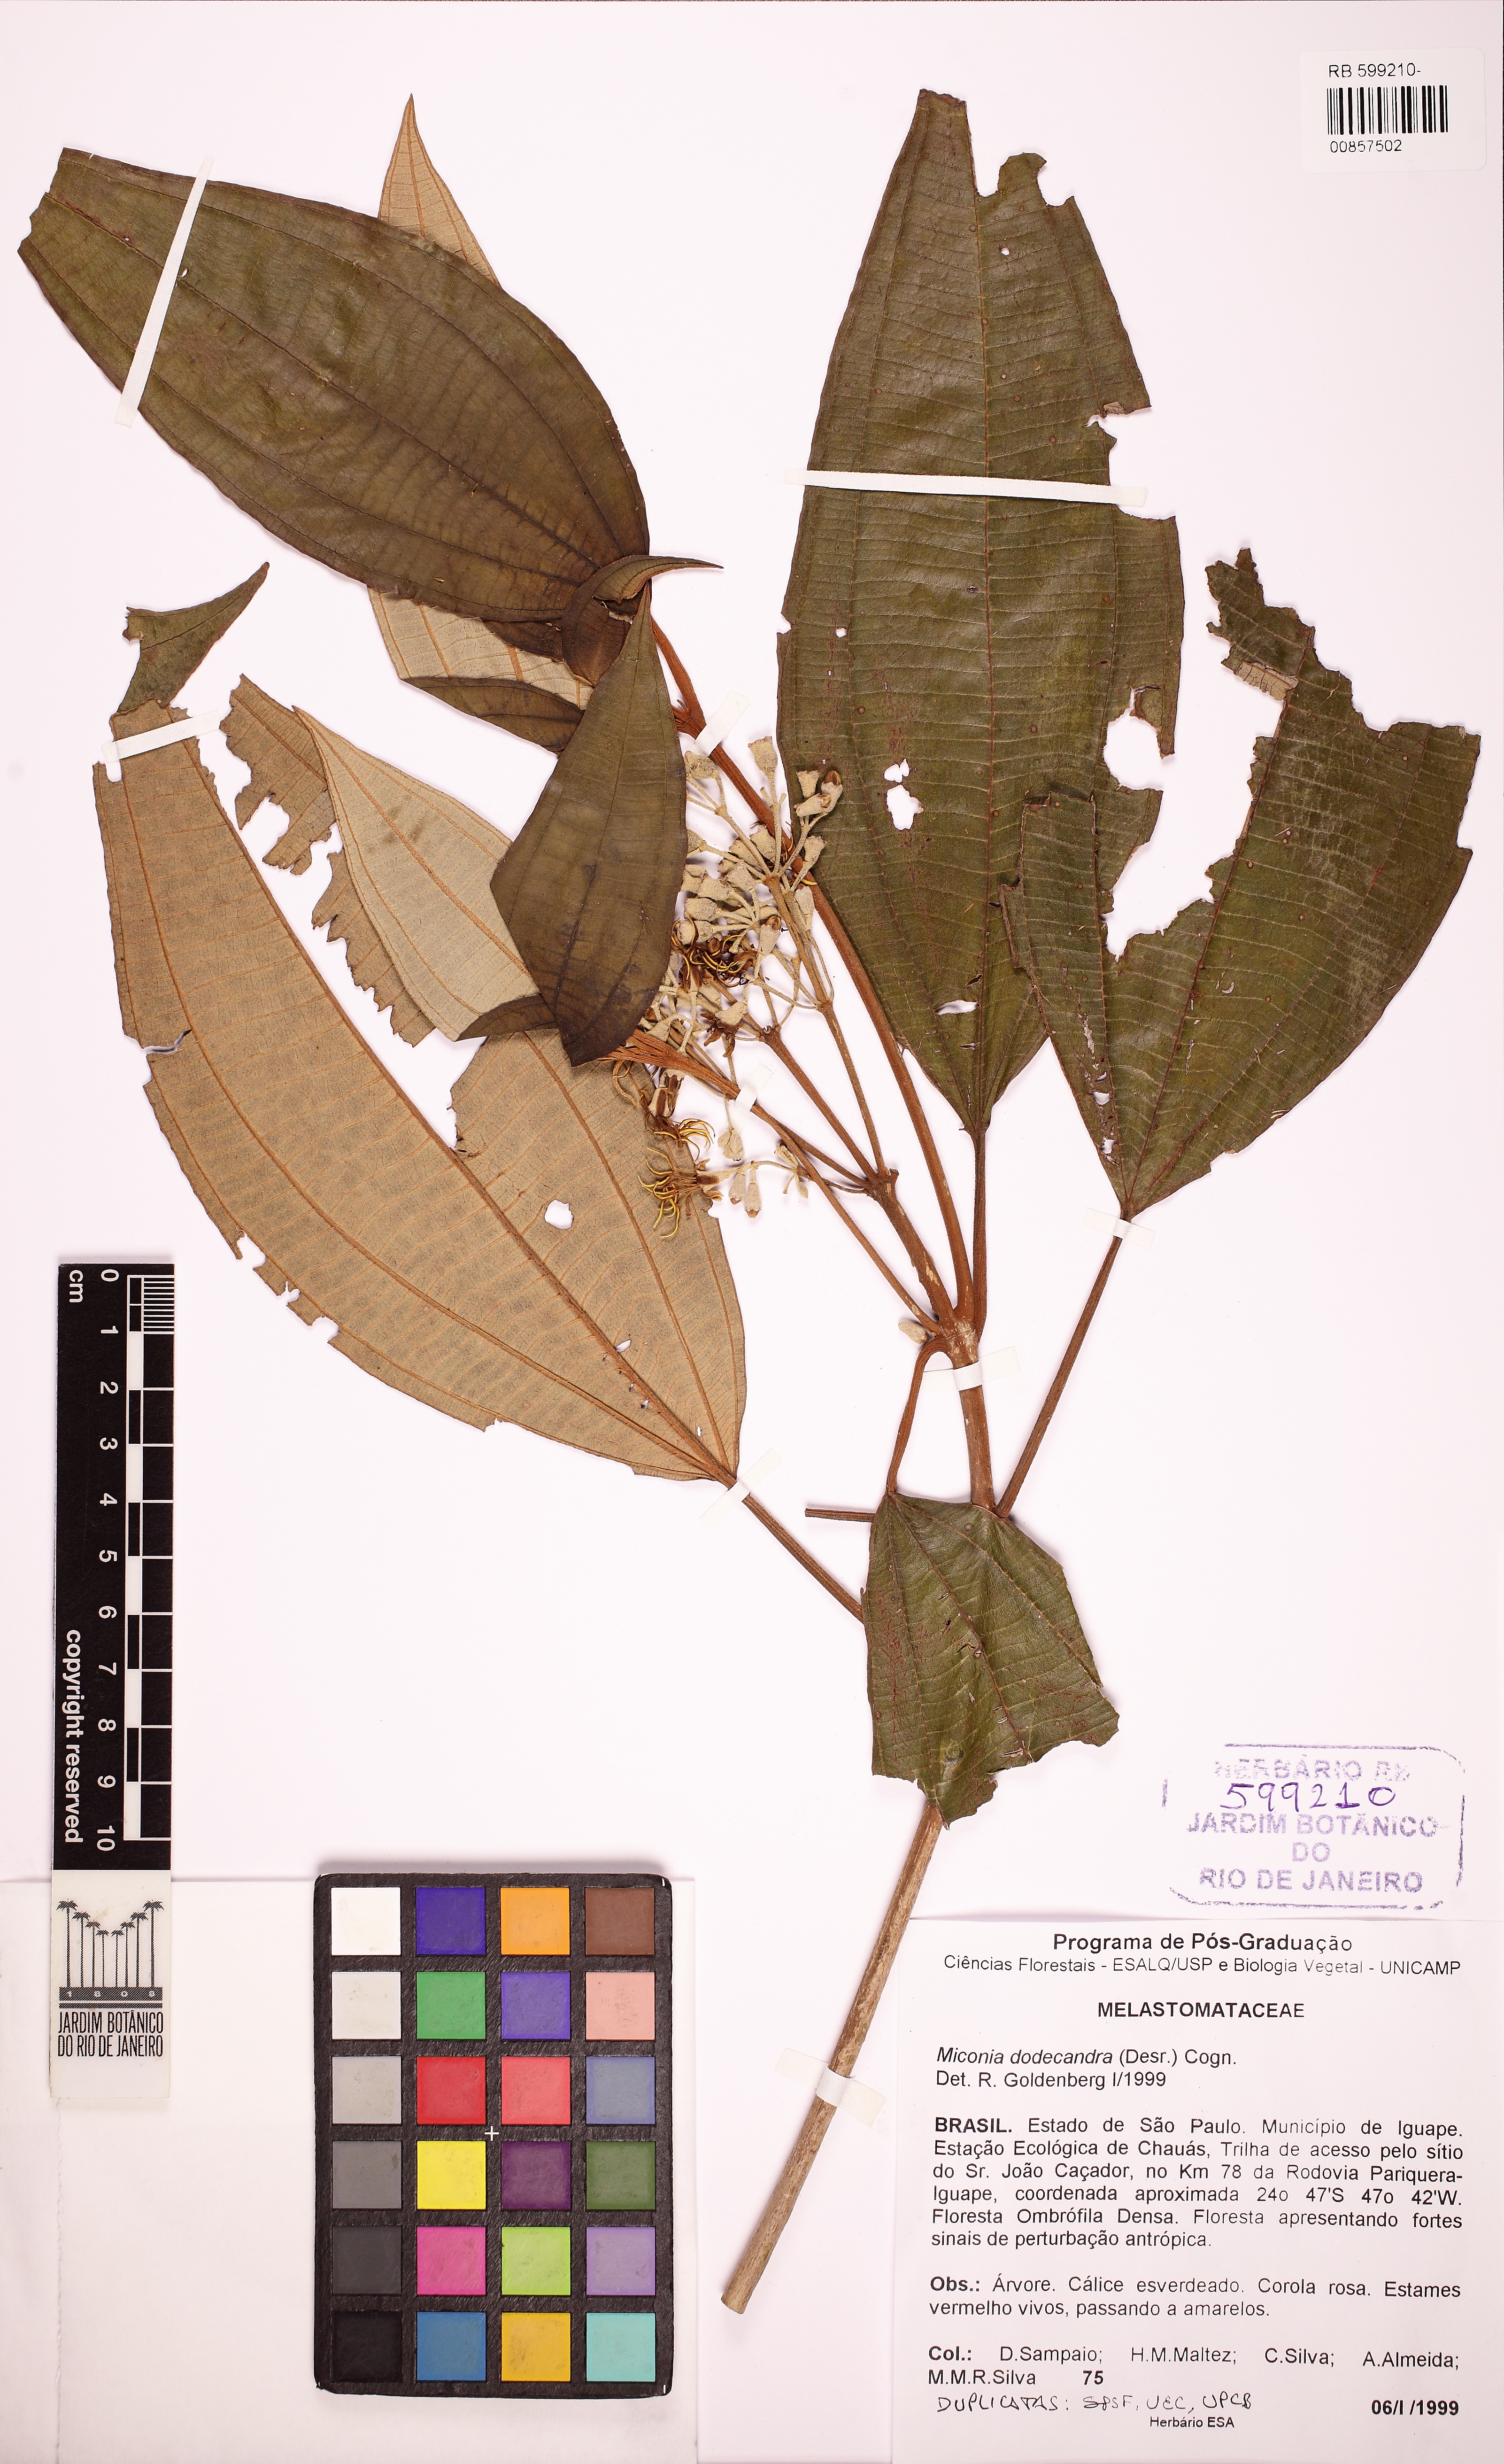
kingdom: Plantae
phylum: Tracheophyta
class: Magnoliopsida
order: Myrtales
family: Melastomataceae
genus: Miconia
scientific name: Miconia dodecandra
